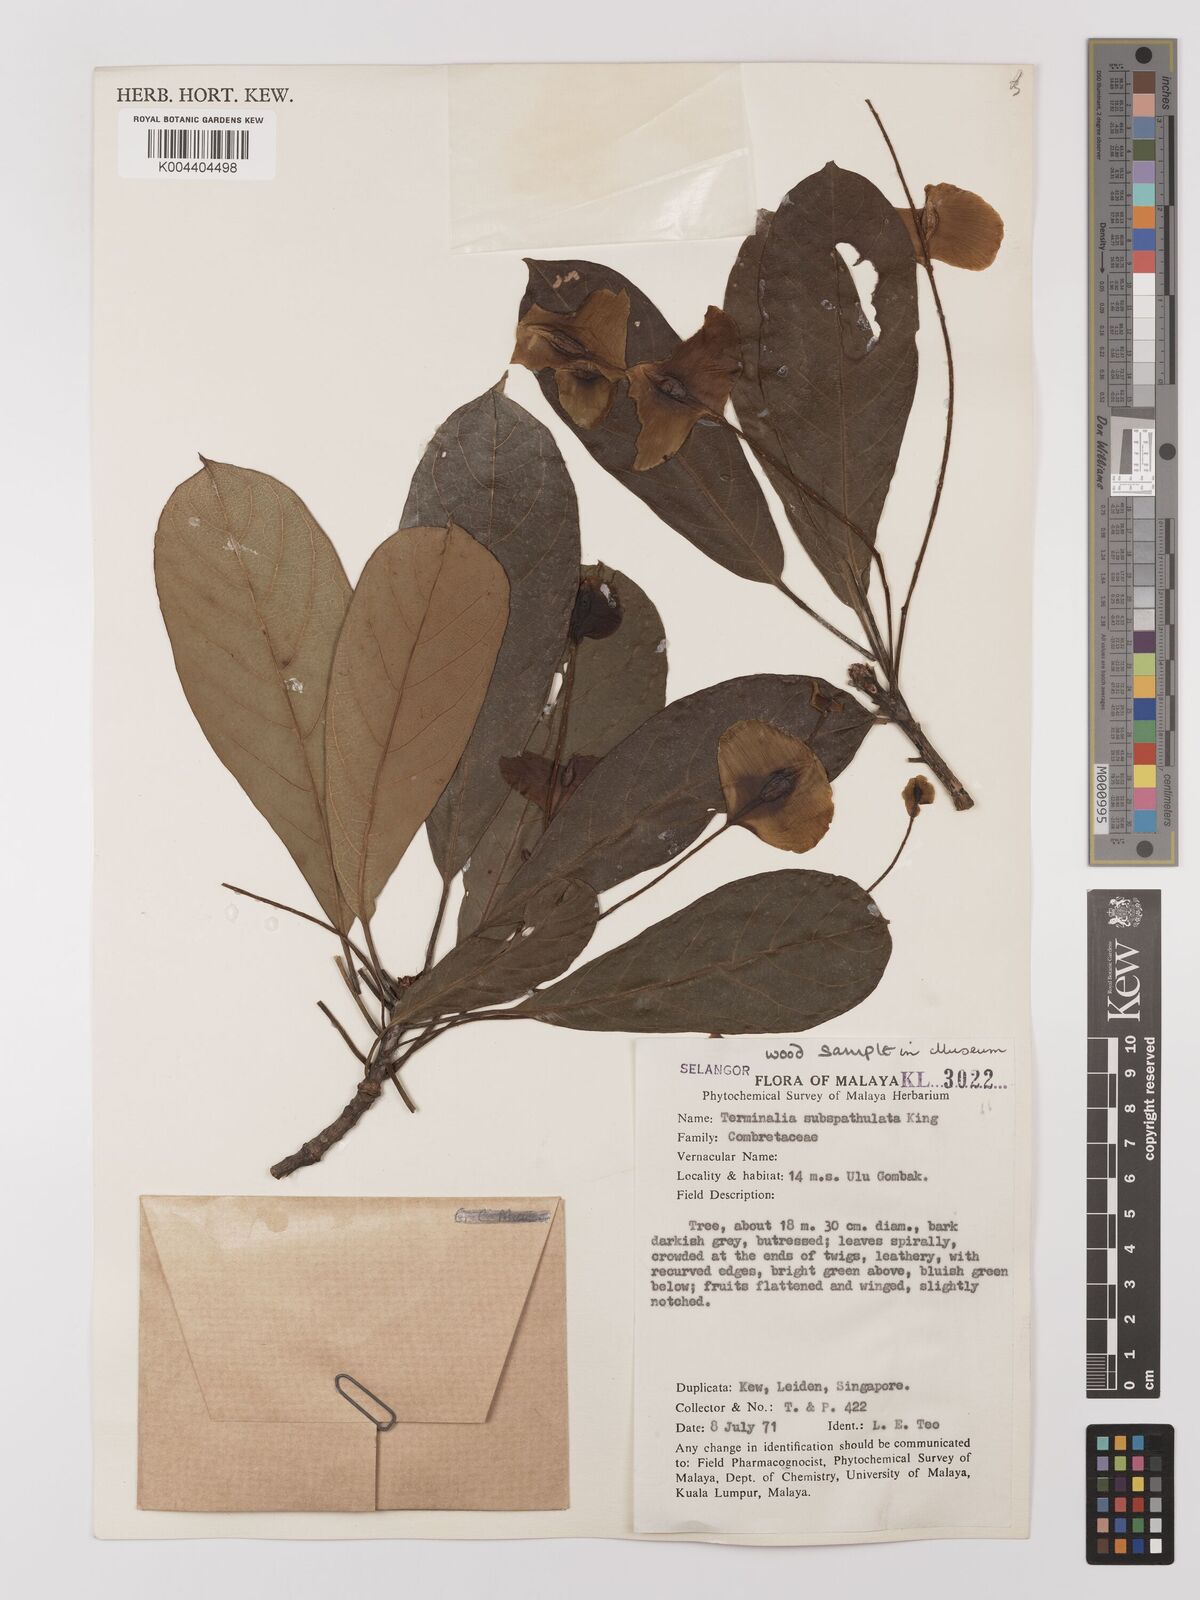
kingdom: Plantae
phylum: Tracheophyta
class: Magnoliopsida
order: Myrtales
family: Combretaceae
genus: Terminalia
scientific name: Terminalia subspathulata
